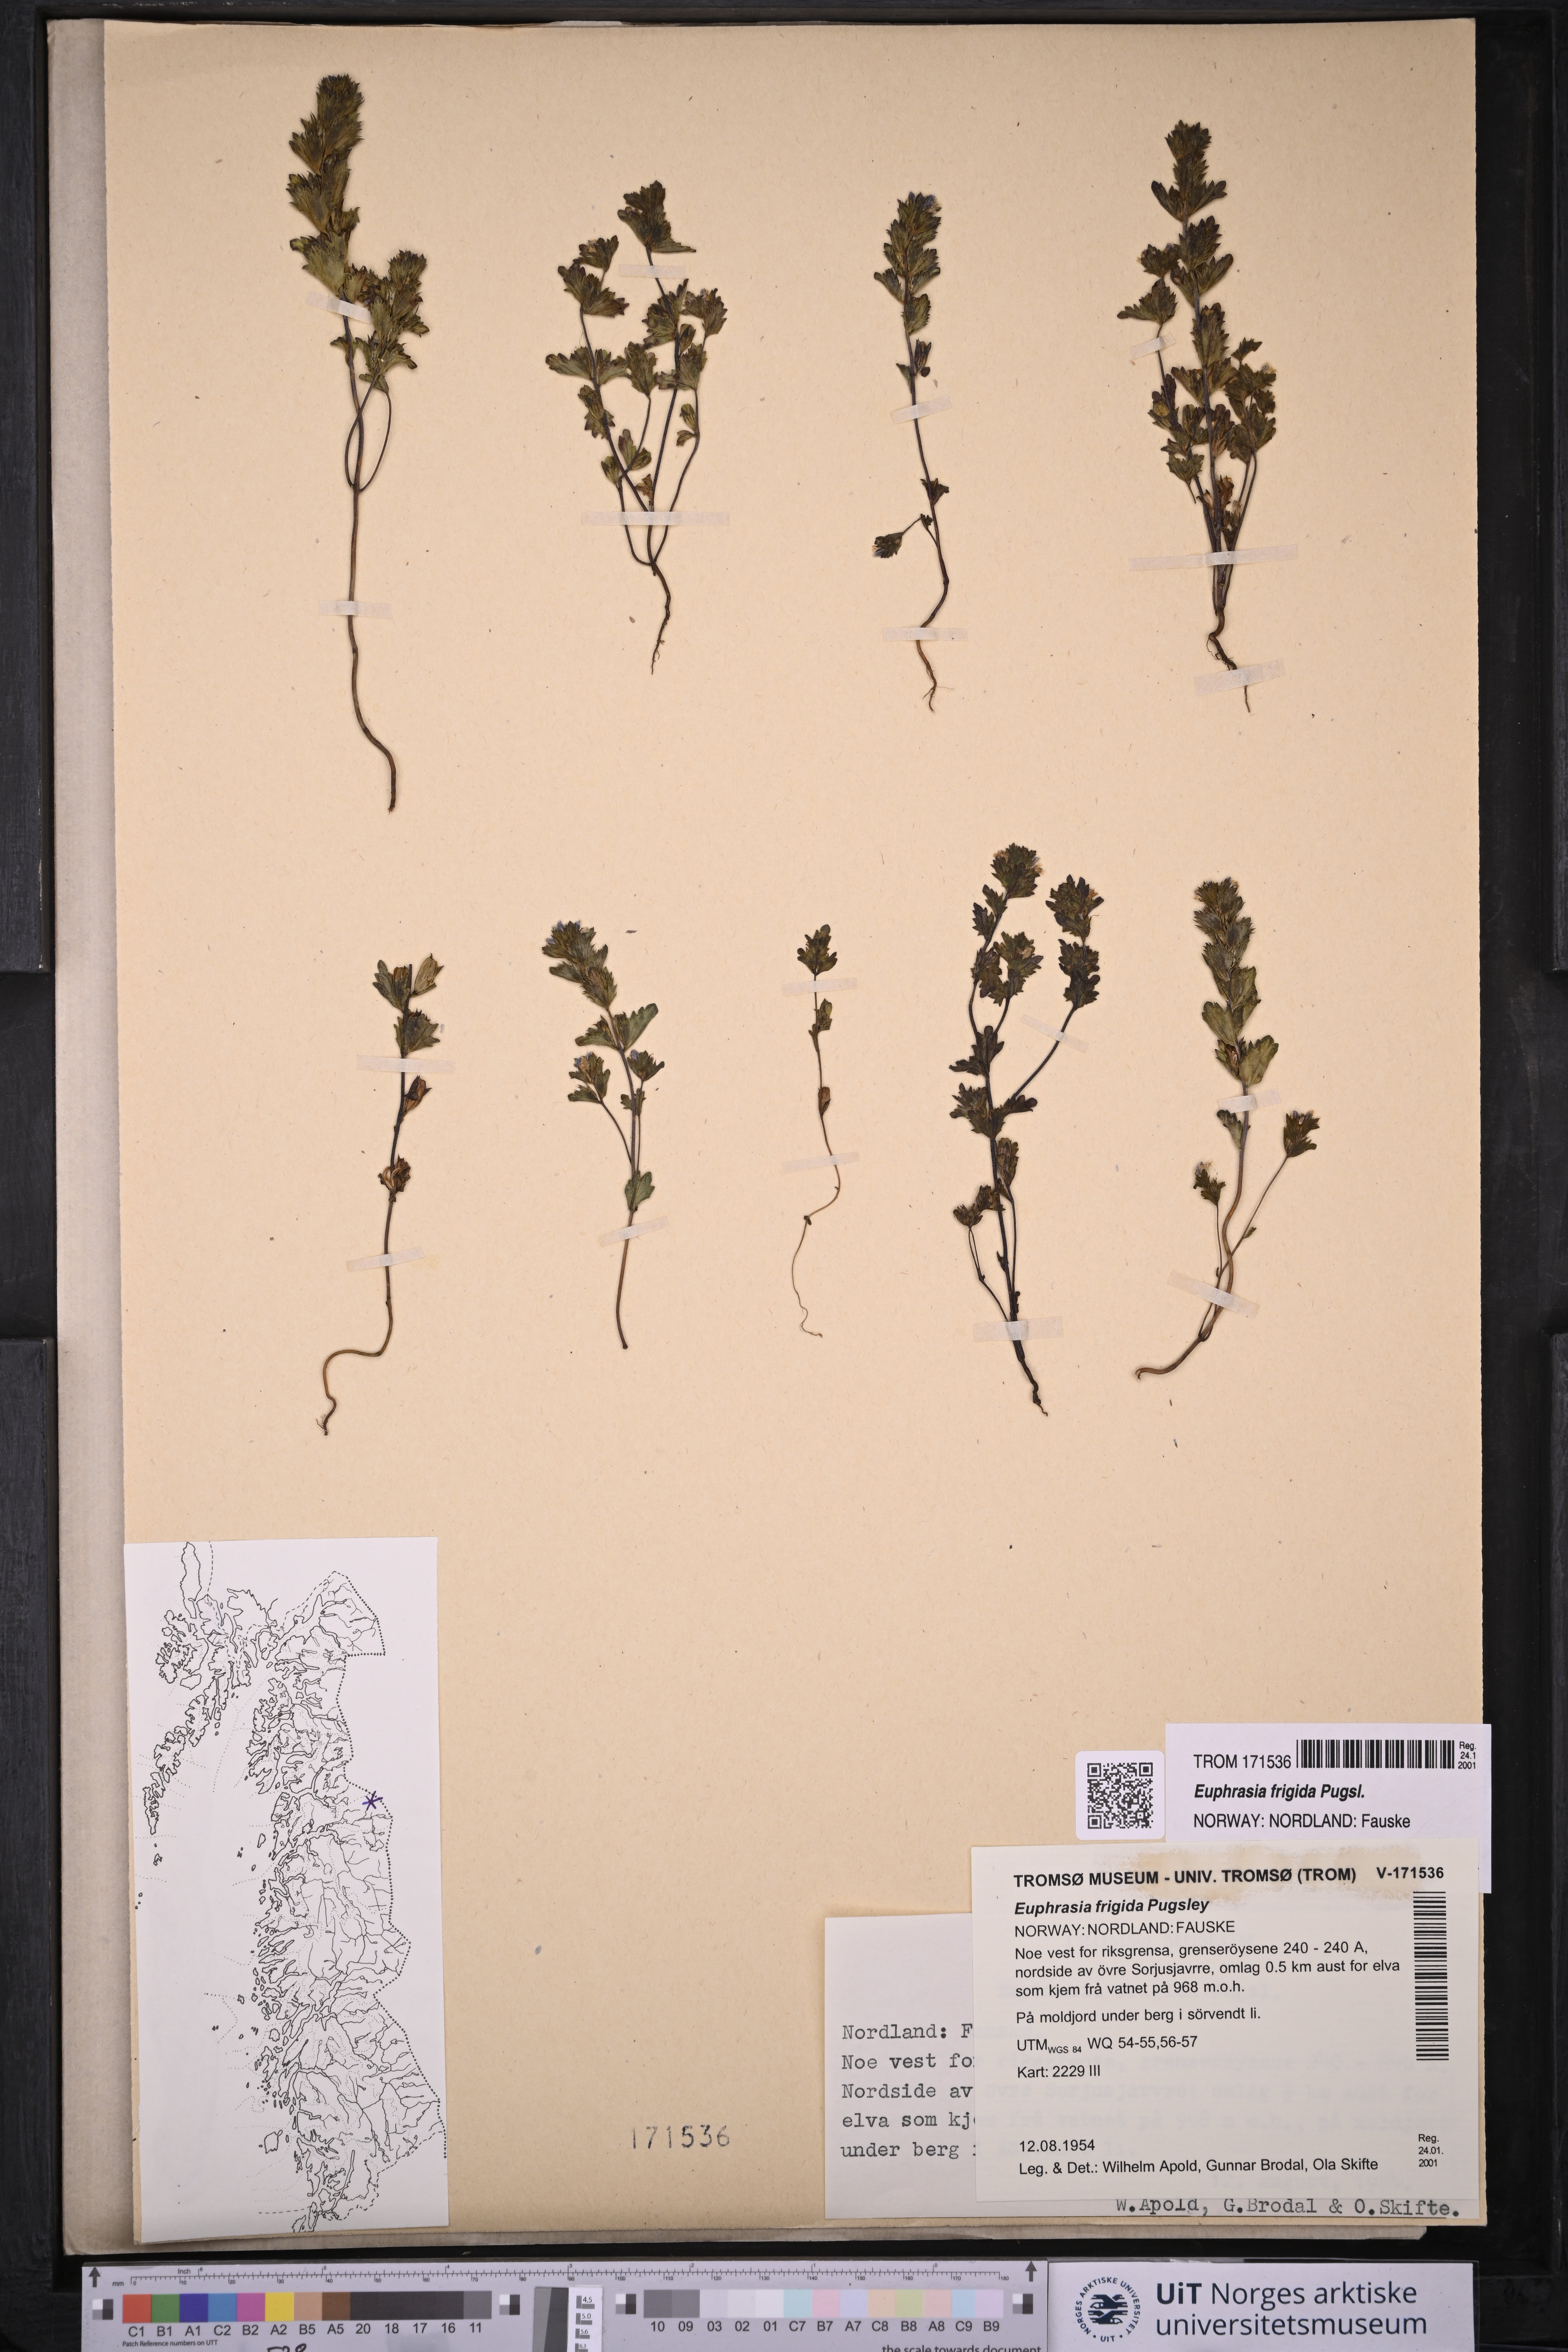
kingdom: Plantae
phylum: Tracheophyta
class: Magnoliopsida
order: Lamiales
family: Orobanchaceae
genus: Euphrasia
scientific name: Euphrasia frigida
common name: An eyebright
